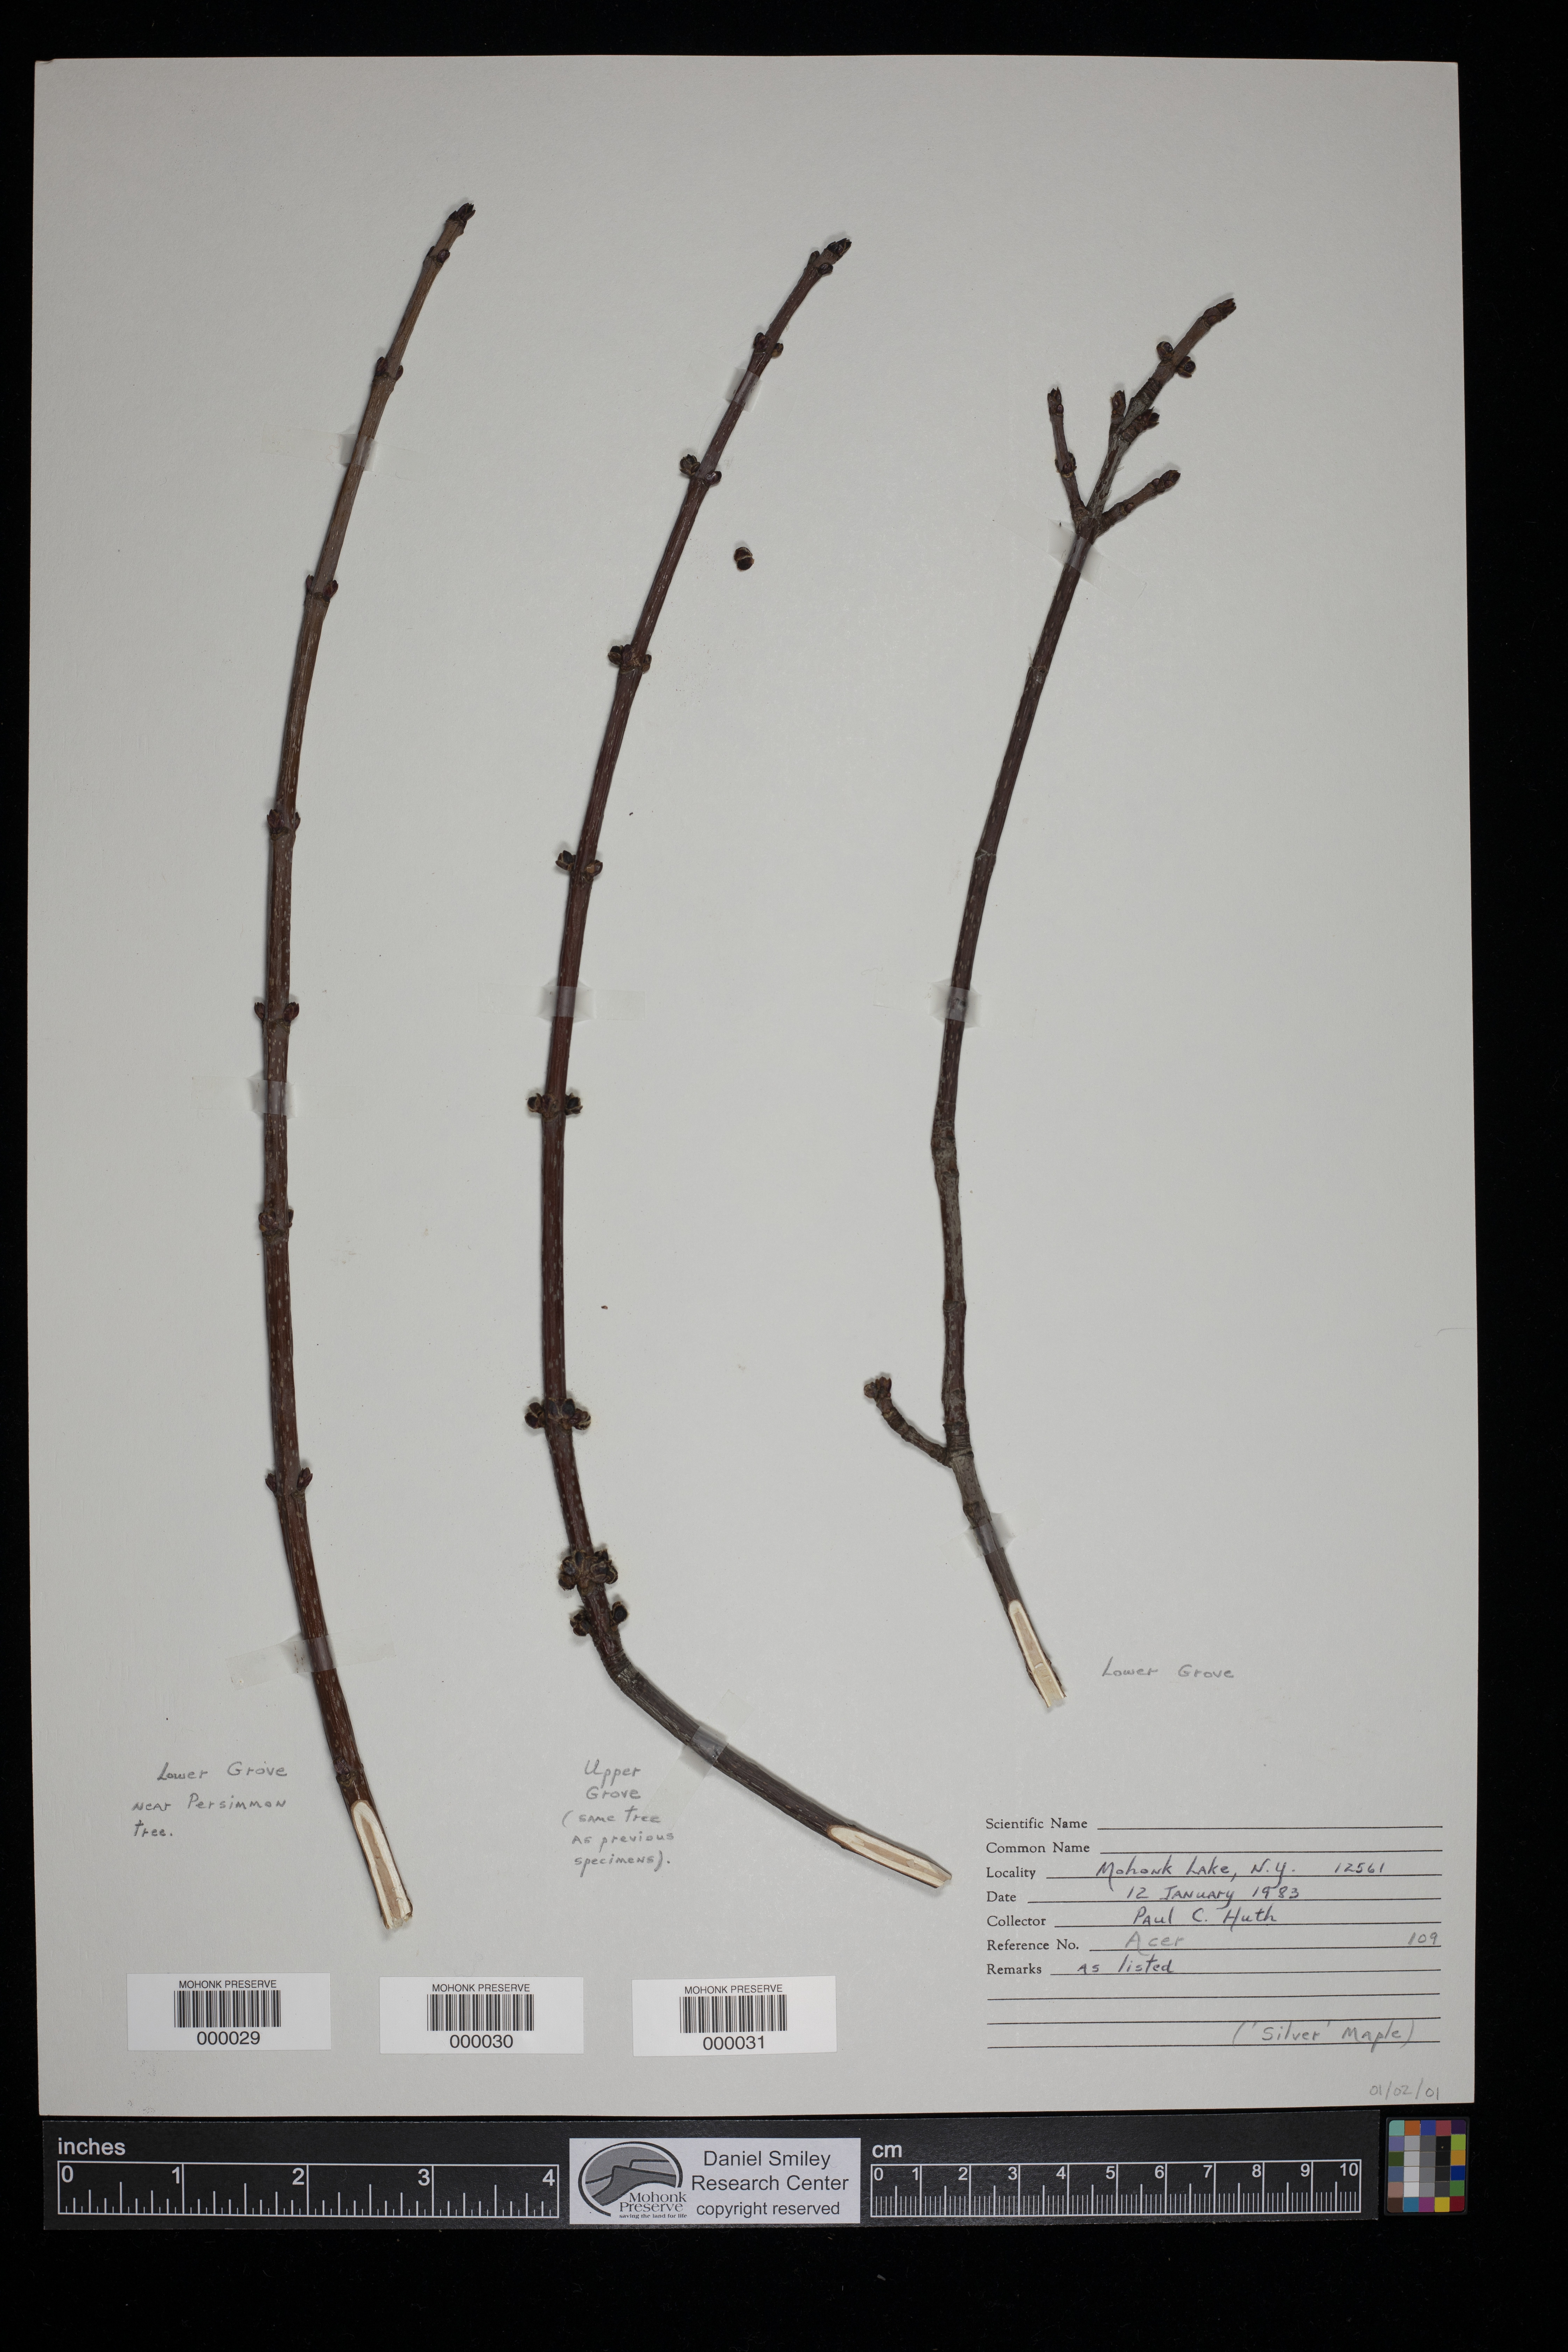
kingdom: Plantae
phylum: Tracheophyta
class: Magnoliopsida
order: Sapindales
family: Sapindaceae
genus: Acer
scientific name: Acer
